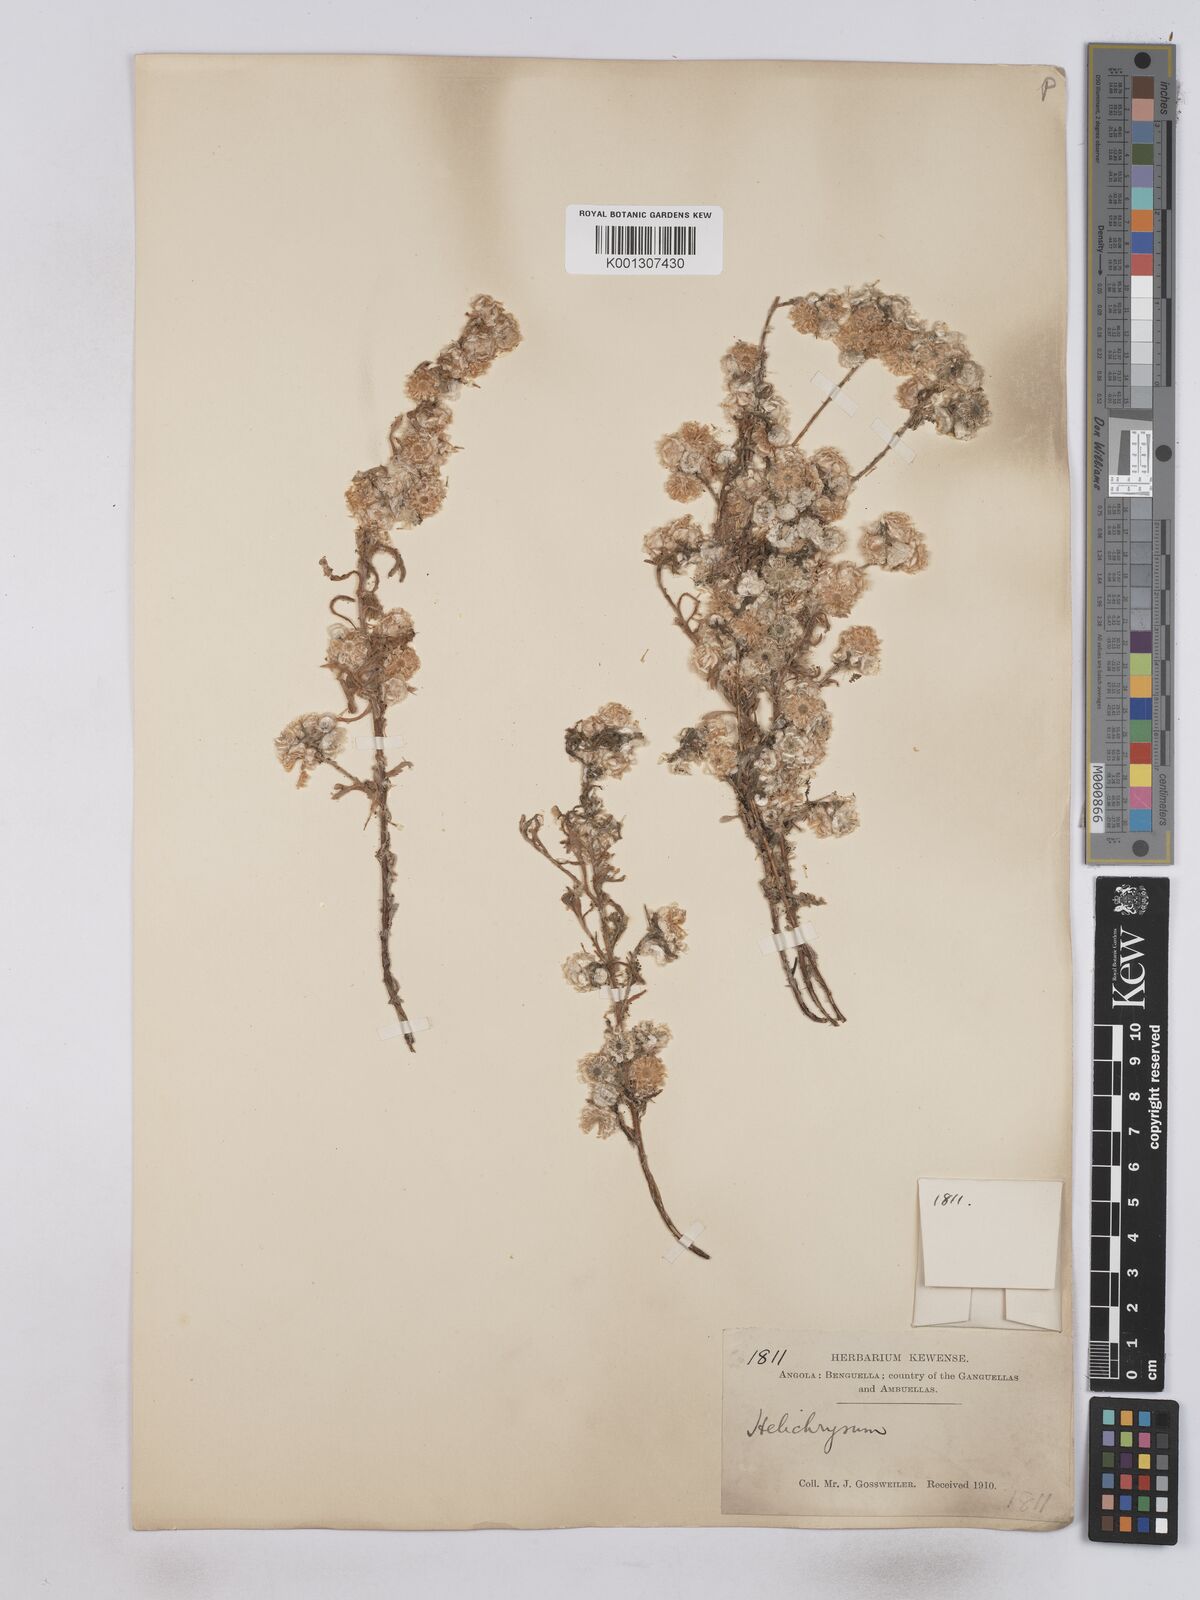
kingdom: Plantae
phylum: Tracheophyta
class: Magnoliopsida
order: Asterales
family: Asteraceae
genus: Helichrysum
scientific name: Helichrysum
